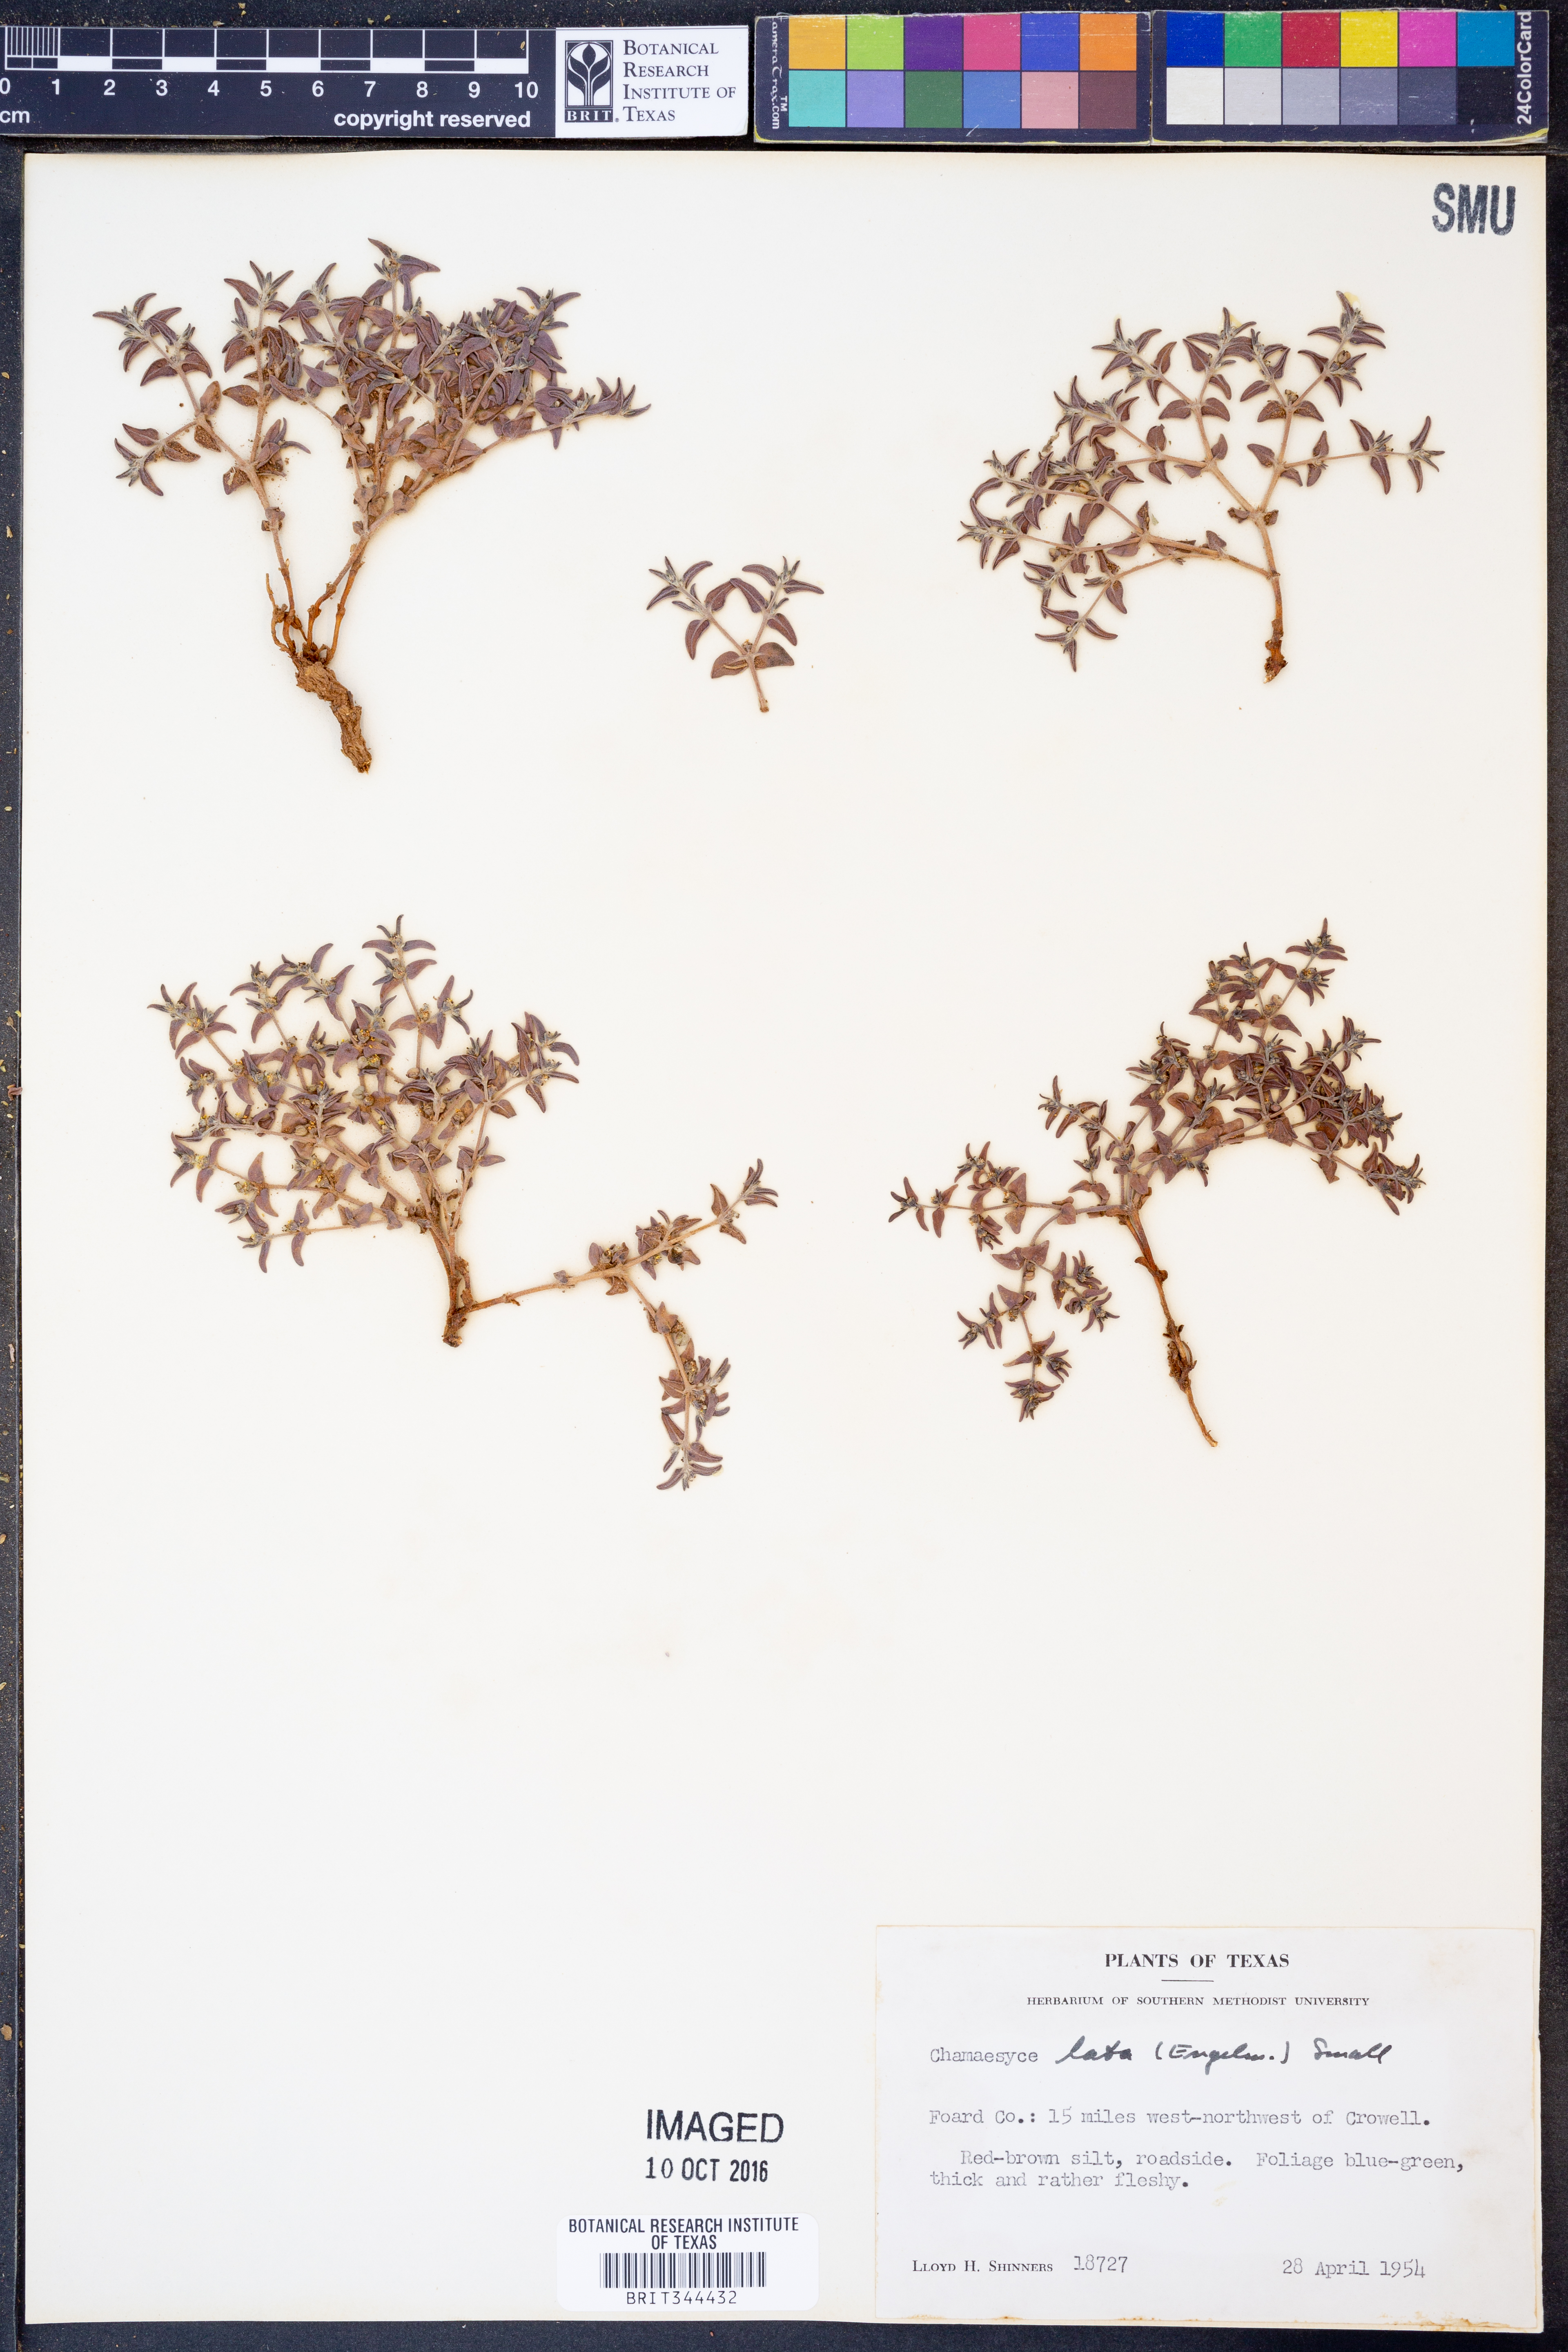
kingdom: Plantae
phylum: Tracheophyta
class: Magnoliopsida
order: Malpighiales
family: Euphorbiaceae
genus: Euphorbia
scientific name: Euphorbia lata
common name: Hoary euphorbia
